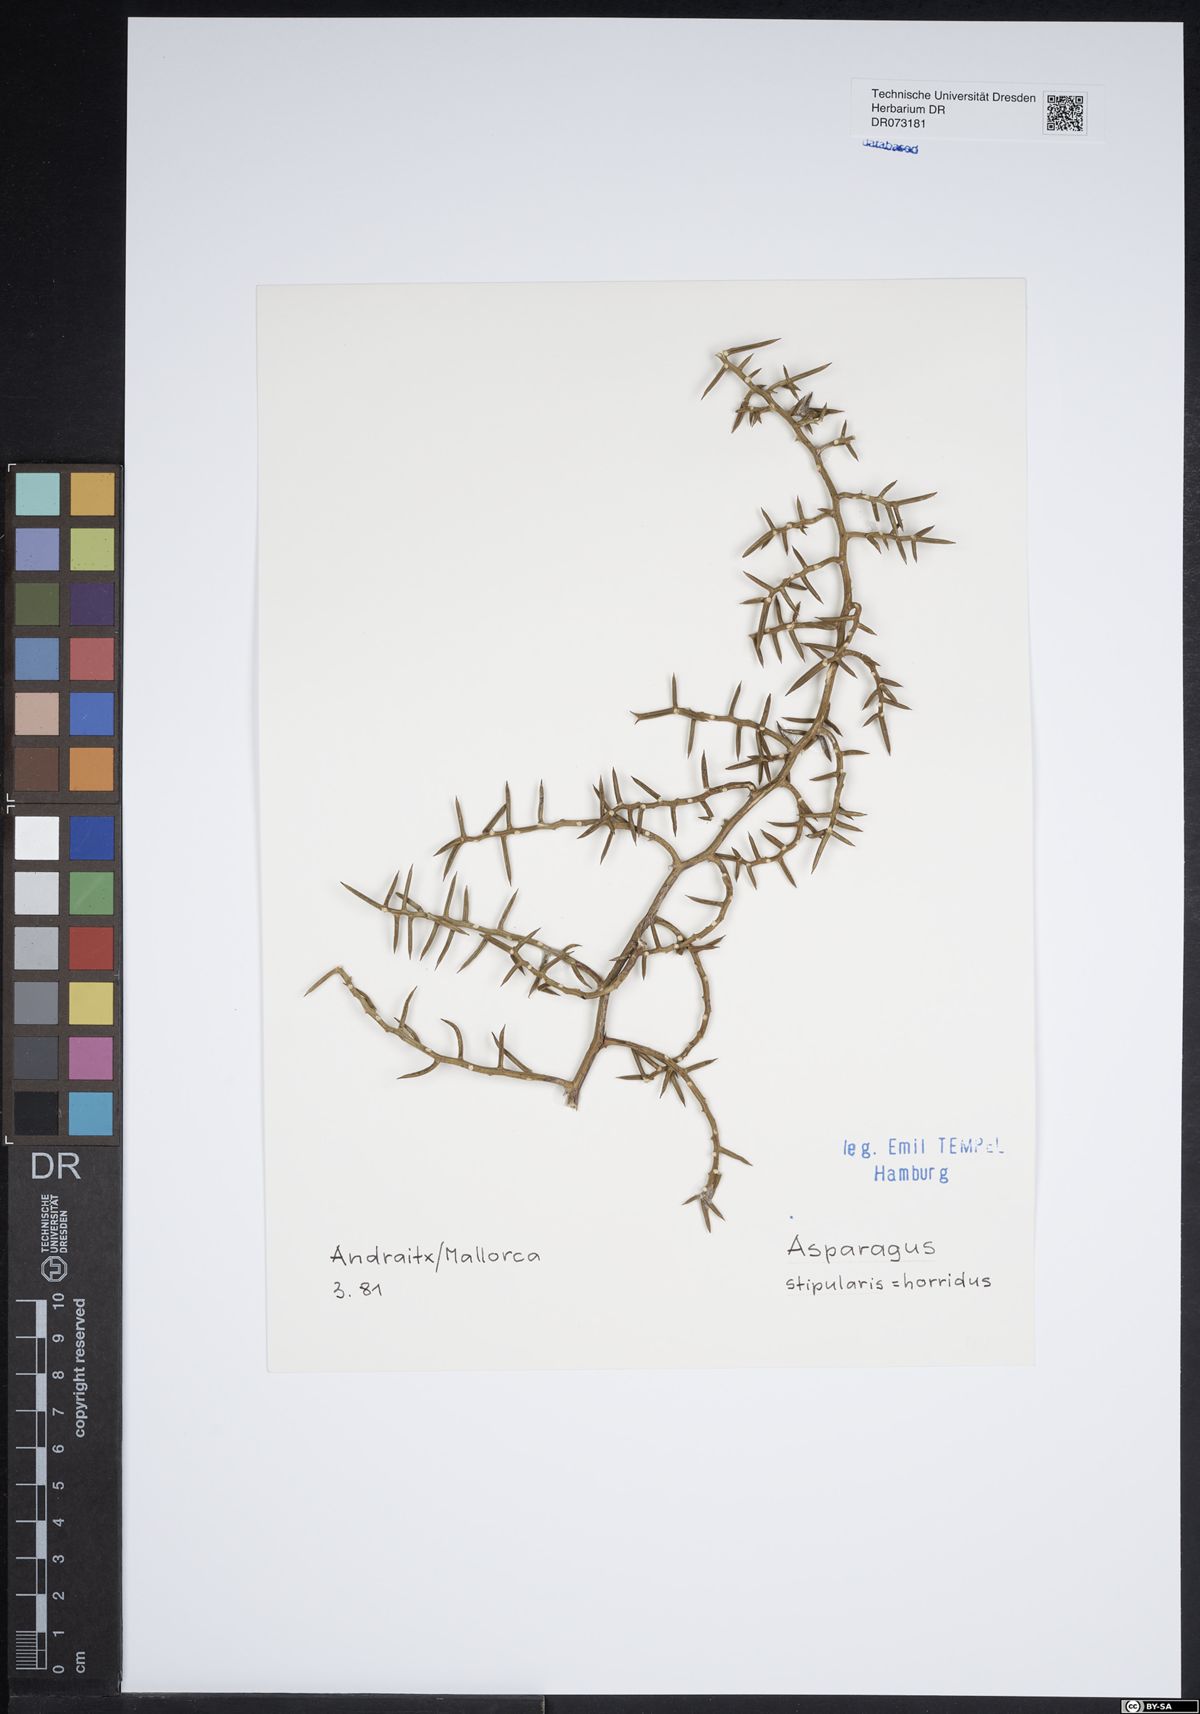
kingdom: Plantae
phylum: Tracheophyta
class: Liliopsida
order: Asparagales
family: Asparagaceae
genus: Asparagus
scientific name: Asparagus horridus
